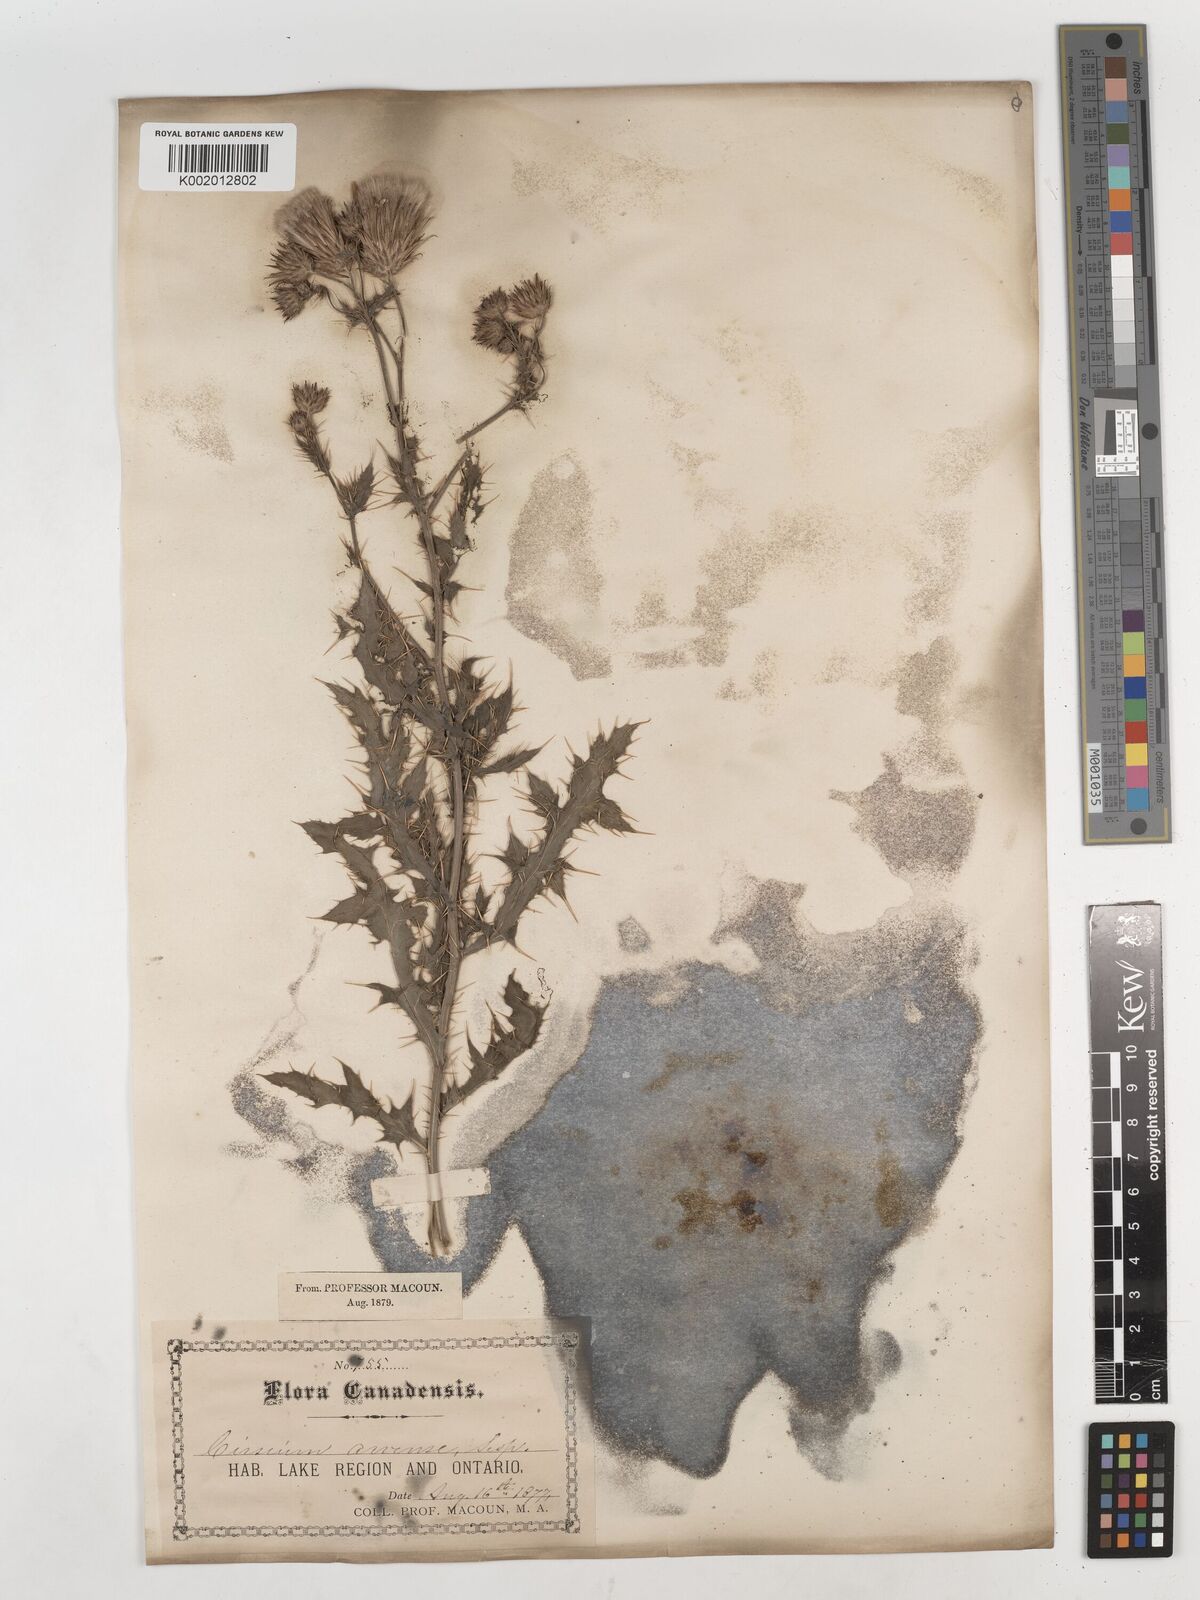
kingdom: Plantae
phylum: Tracheophyta
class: Magnoliopsida
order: Asterales
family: Asteraceae
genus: Cirsium
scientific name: Cirsium arvense
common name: Creeping thistle
